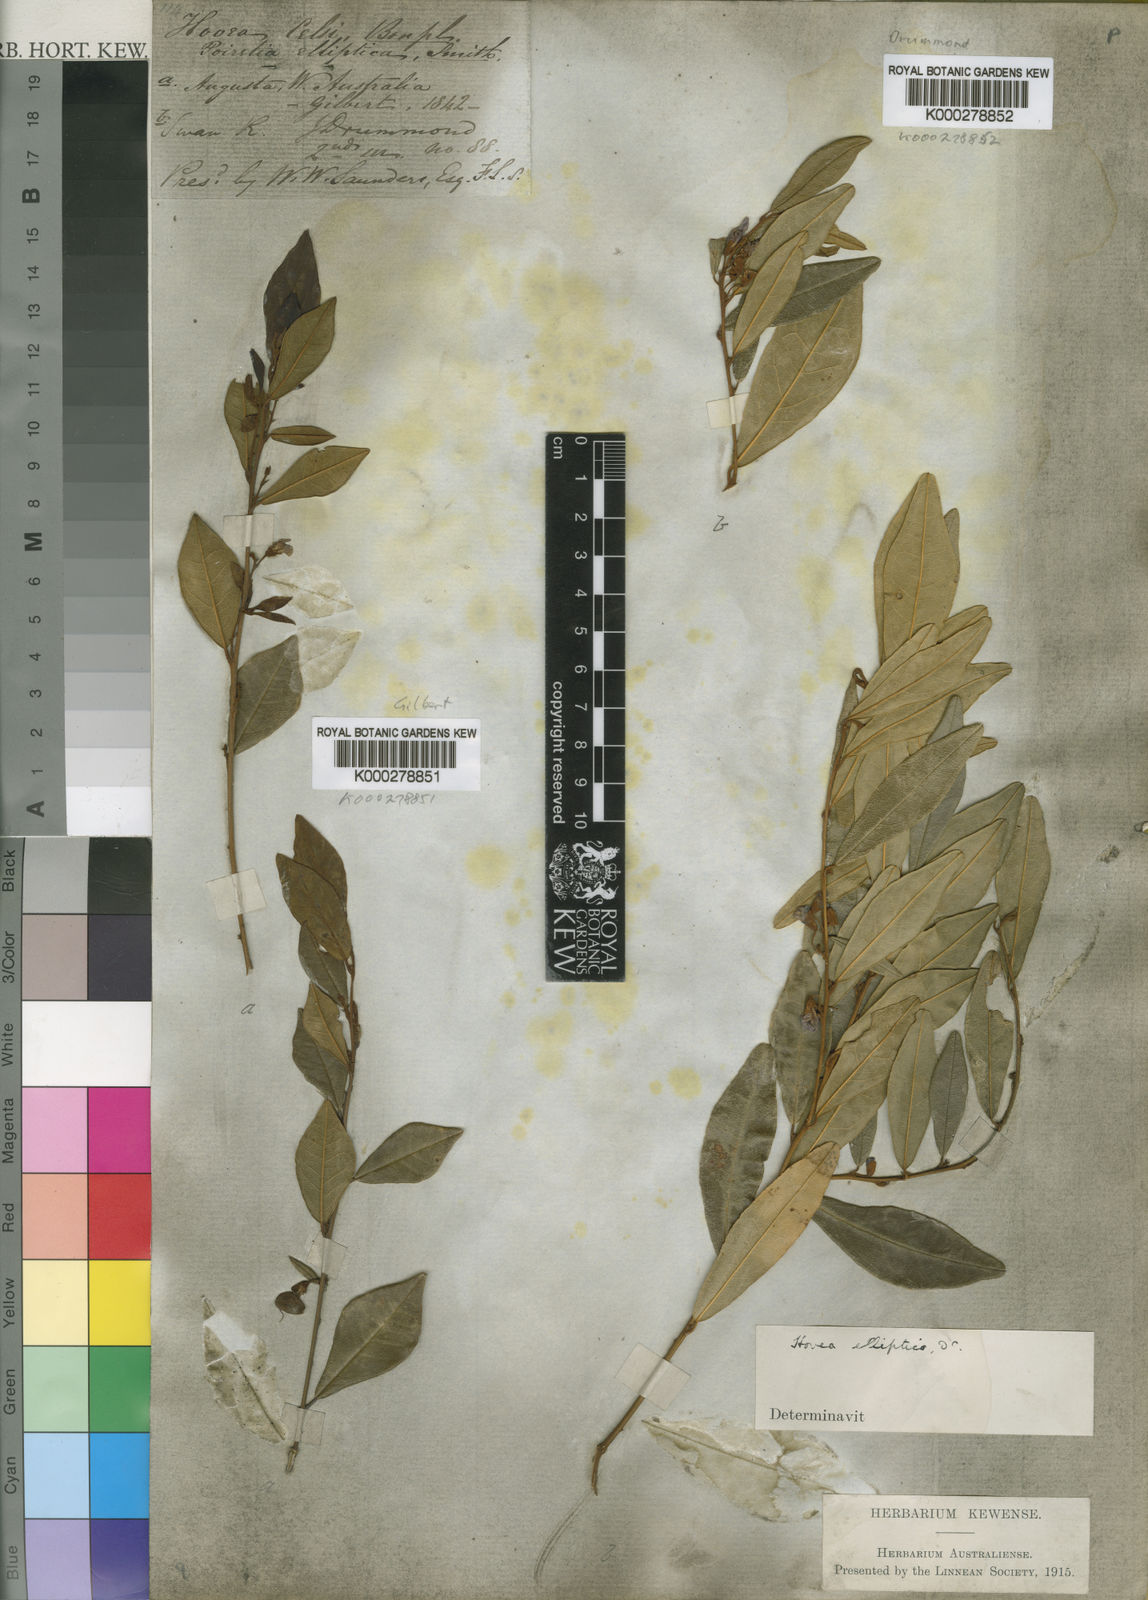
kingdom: Plantae
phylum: Tracheophyta
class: Magnoliopsida
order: Fabales
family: Fabaceae
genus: Hovea
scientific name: Hovea elliptica
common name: Tree hovea
